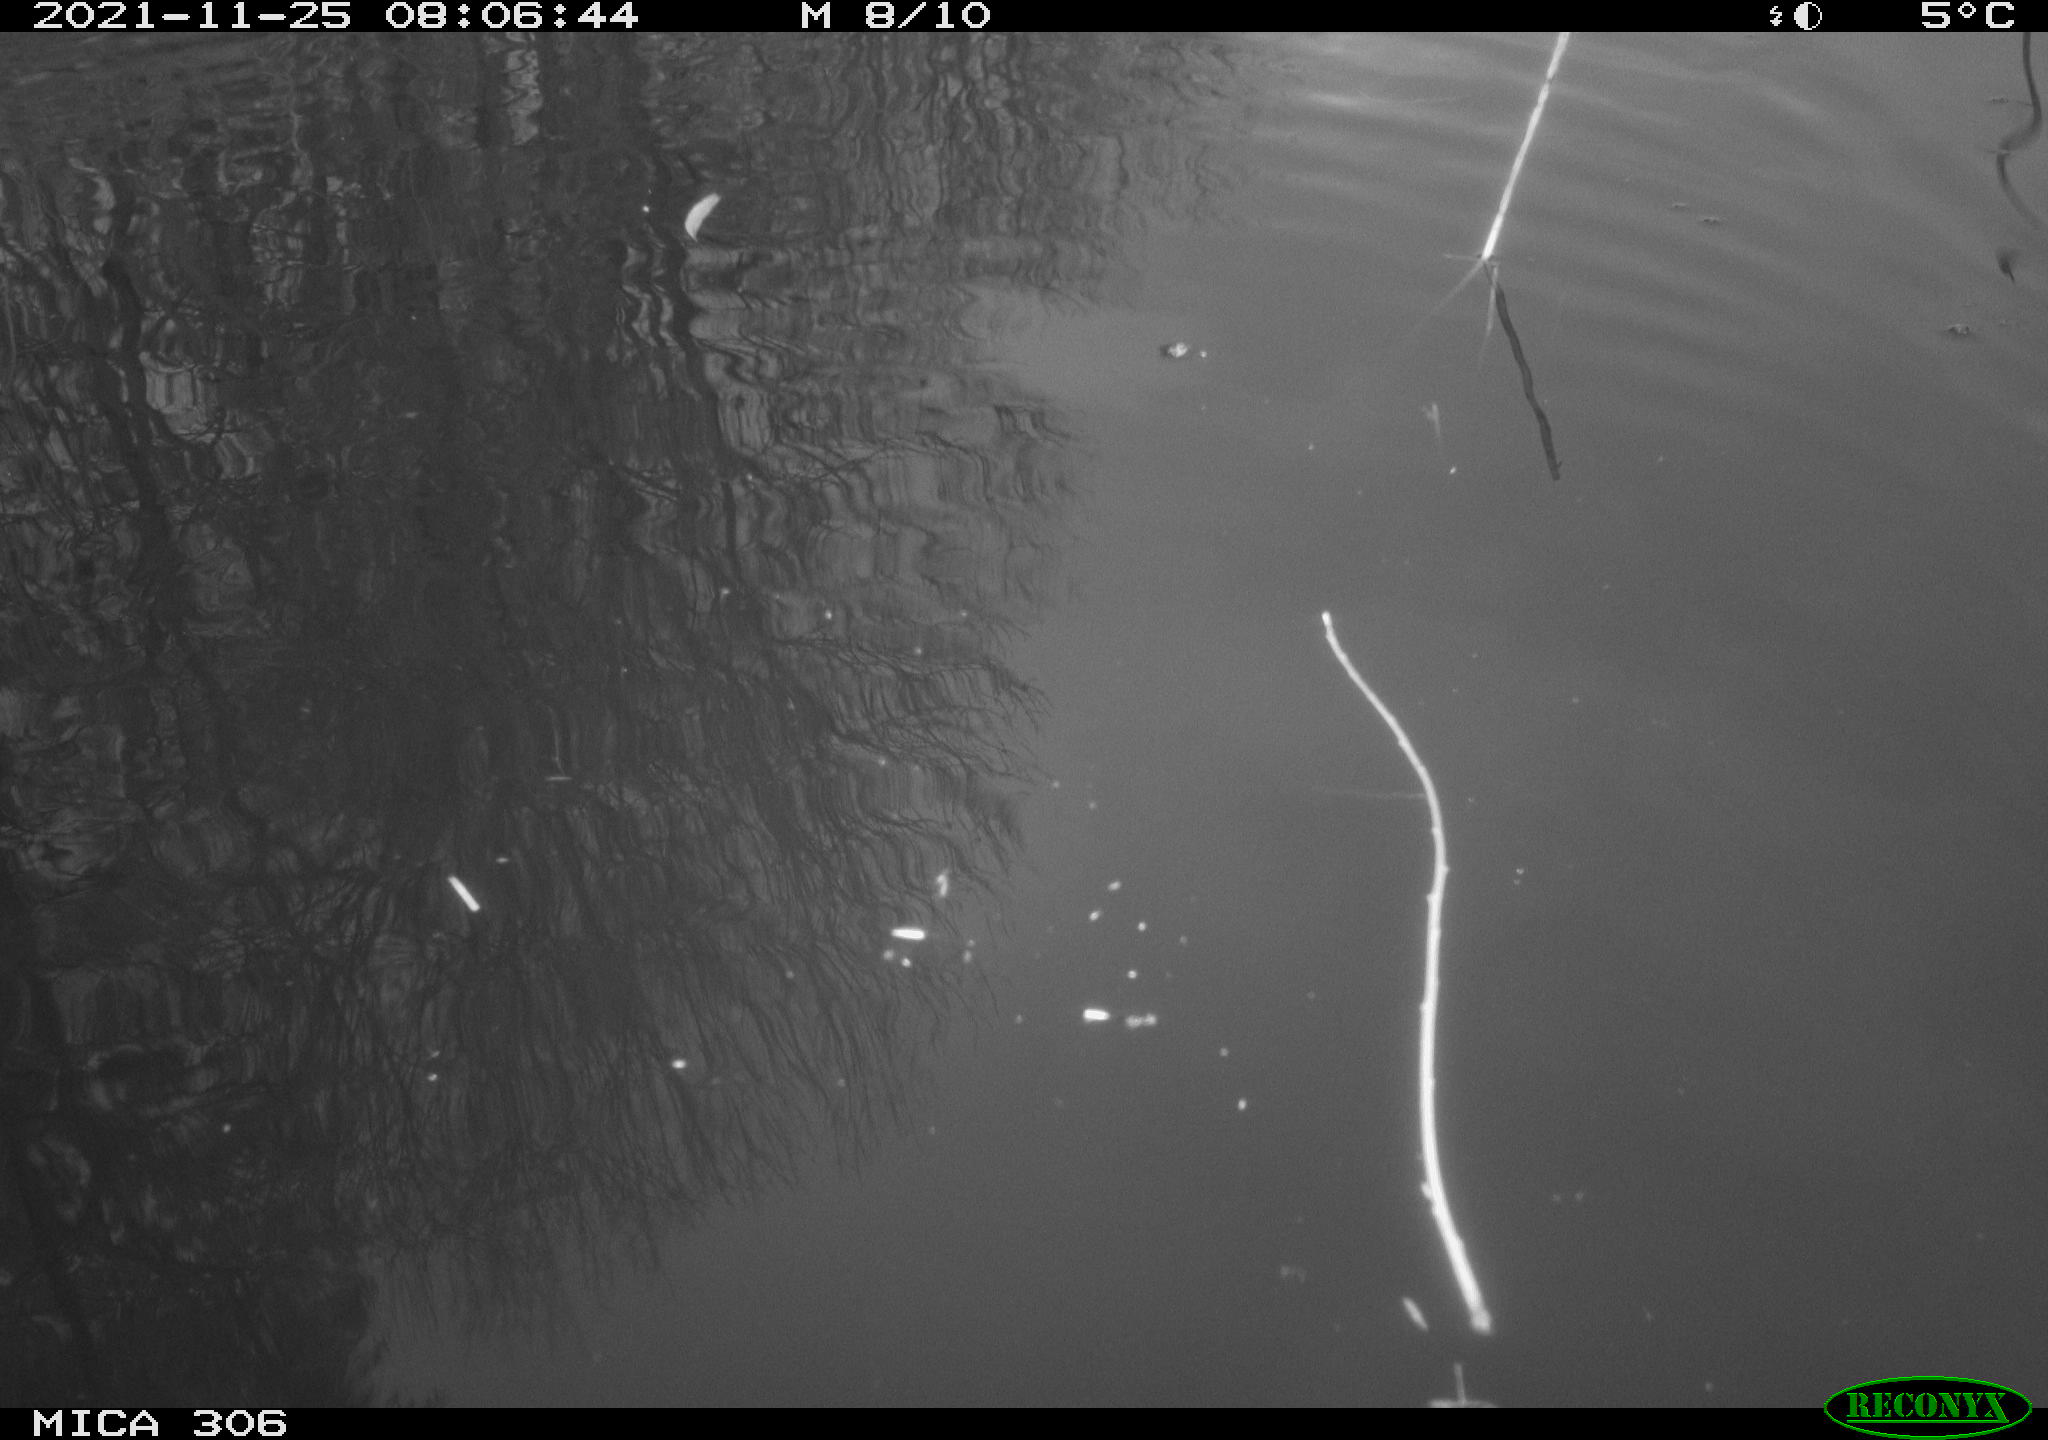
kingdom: Animalia
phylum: Chordata
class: Aves
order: Gruiformes
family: Rallidae
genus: Fulica
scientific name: Fulica atra
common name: Eurasian coot
